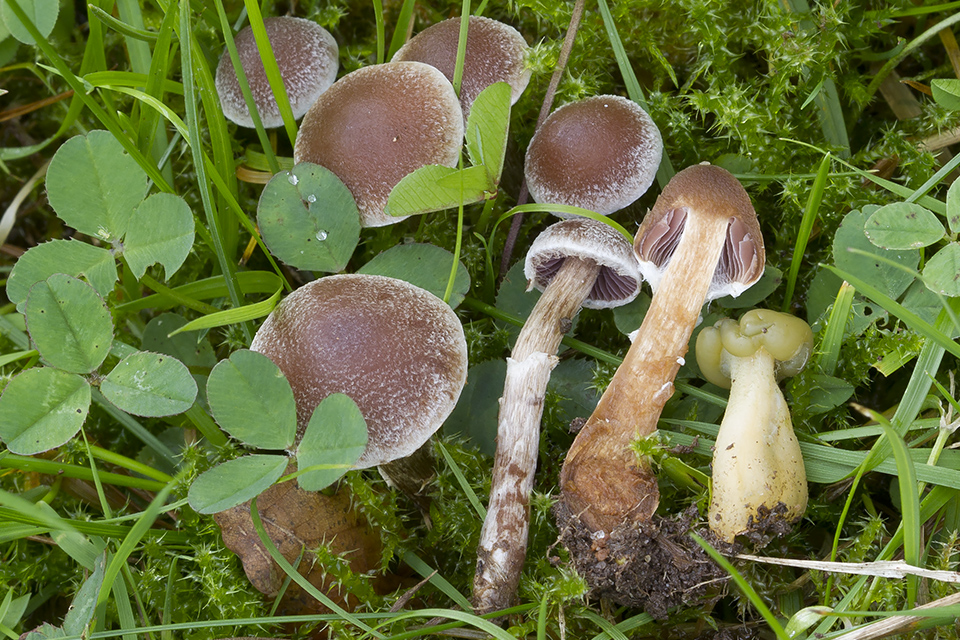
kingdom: Fungi
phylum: Basidiomycota
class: Agaricomycetes
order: Agaricales
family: Cortinariaceae
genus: Cortinarius
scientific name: Cortinarius geraniolens
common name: geranium-slørhat
